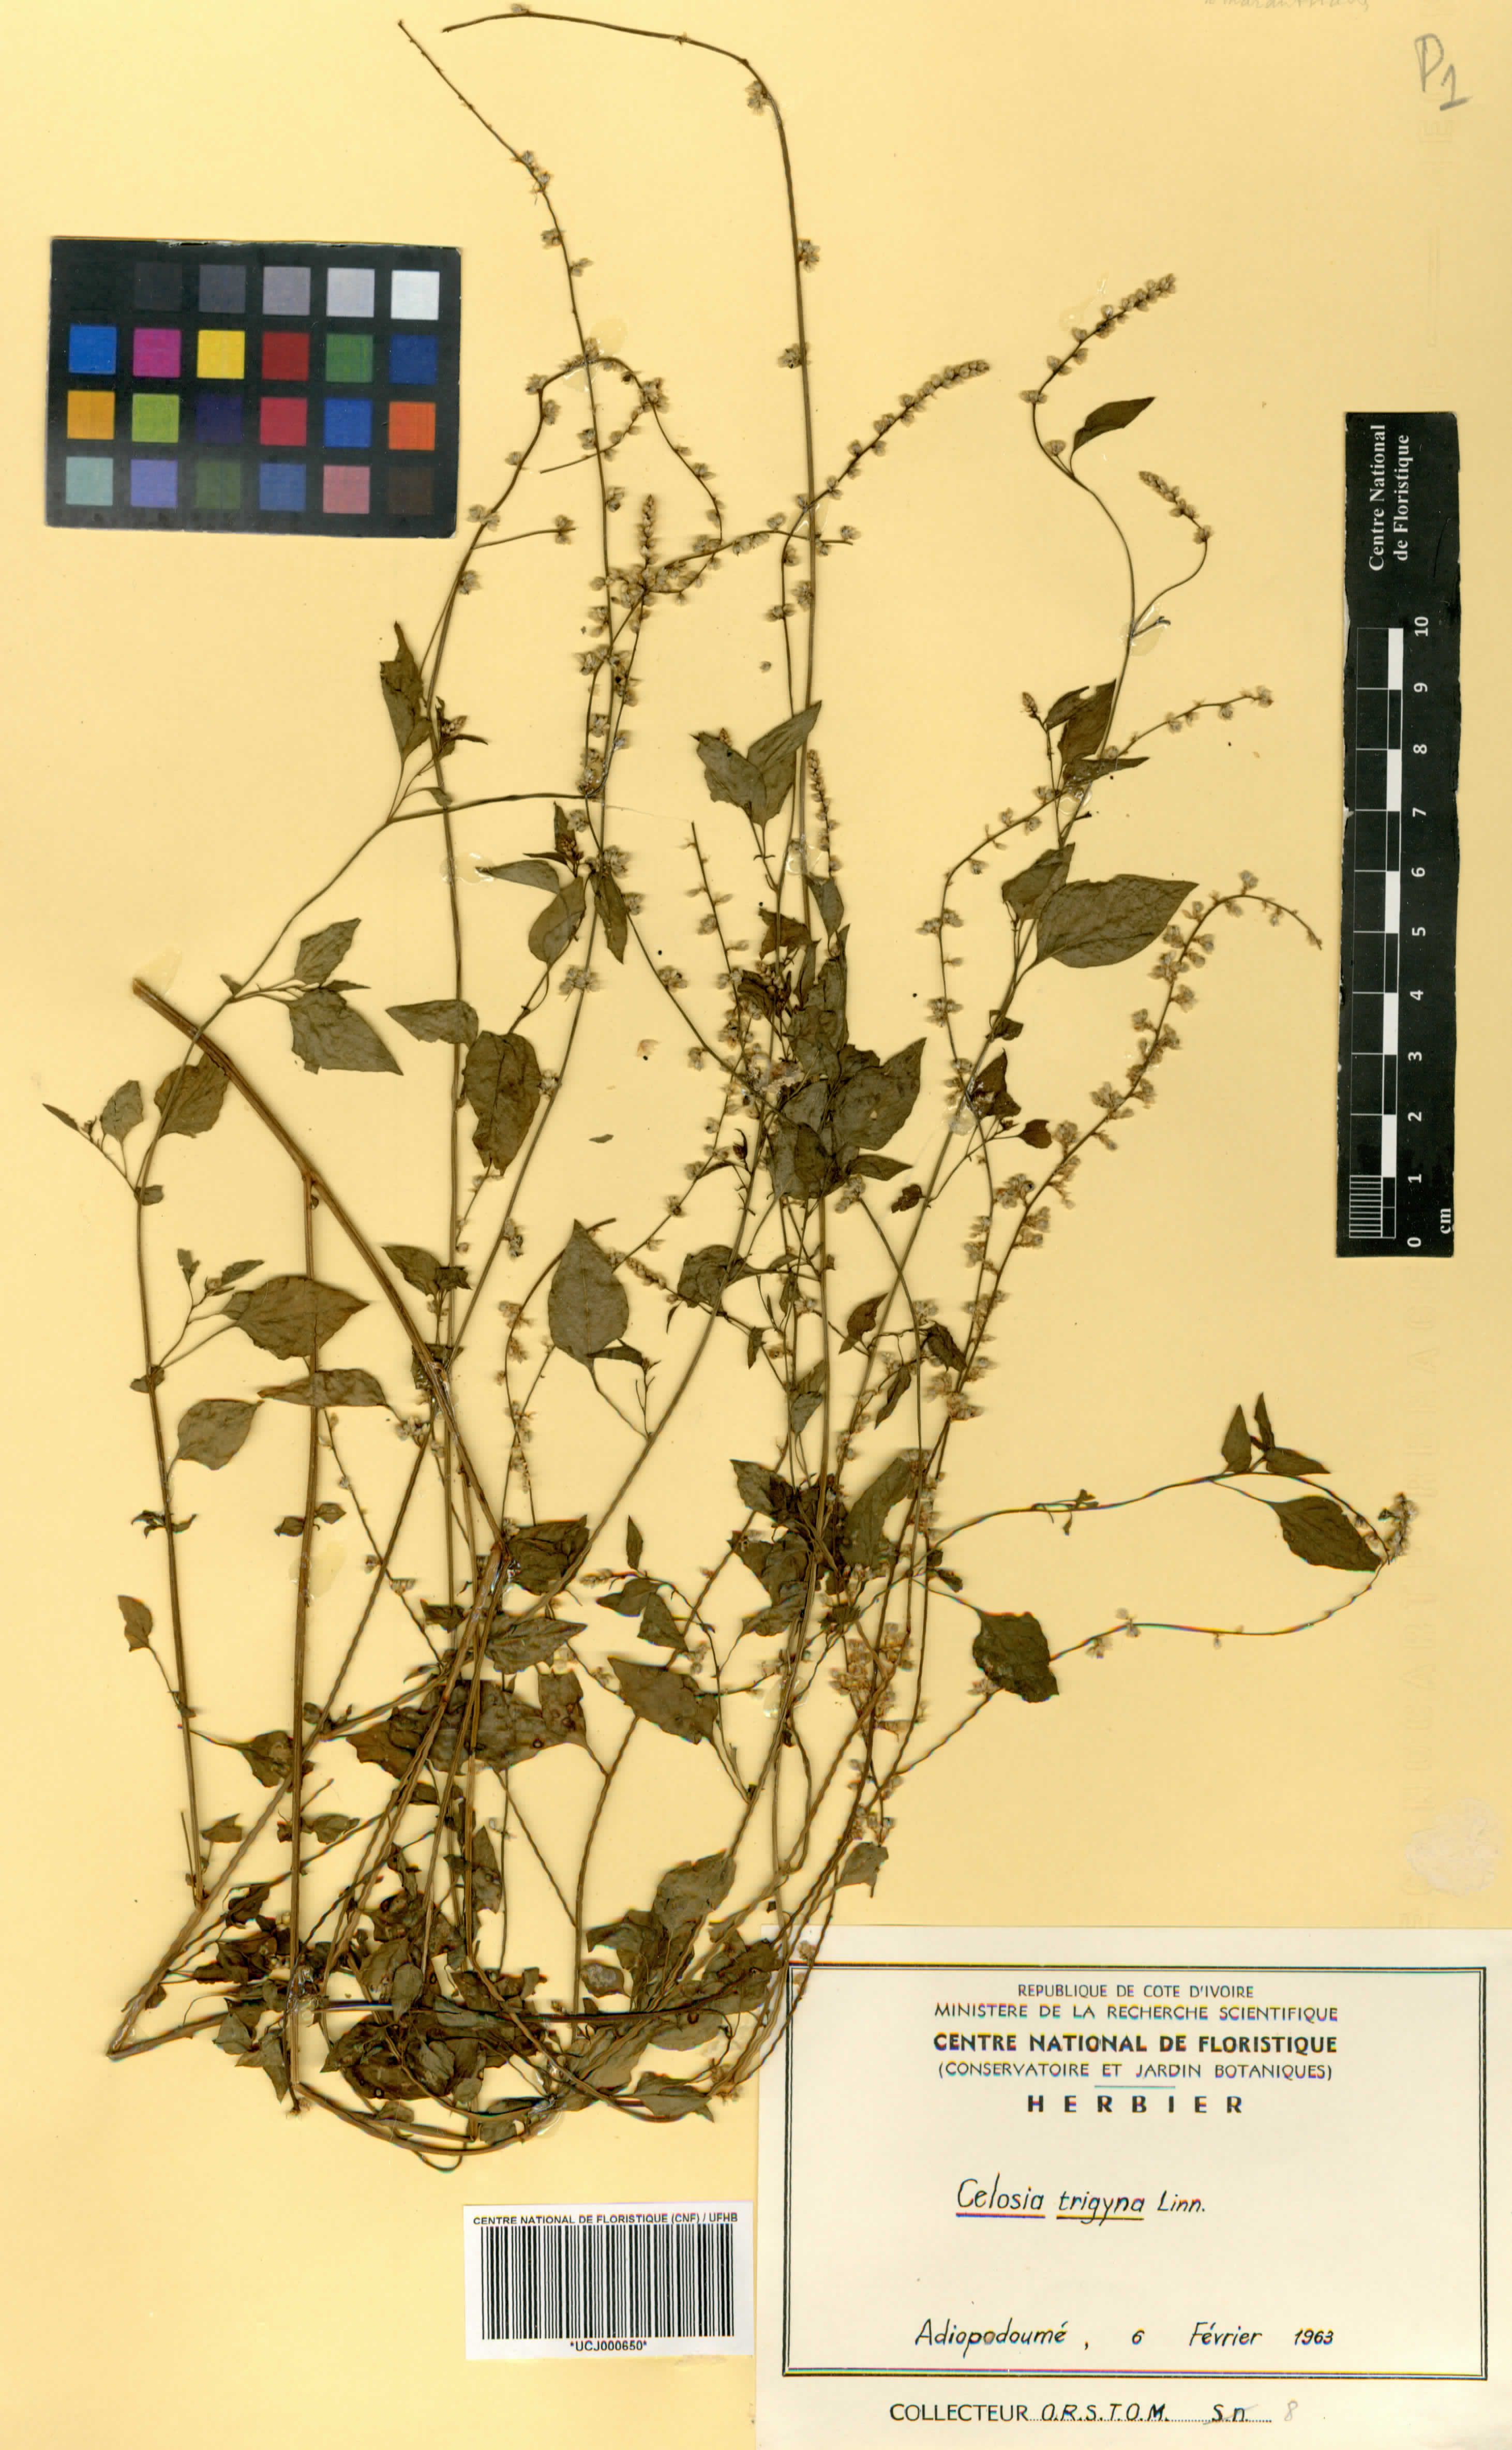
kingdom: Plantae
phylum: Tracheophyta
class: Magnoliopsida
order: Caryophyllales
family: Amaranthaceae
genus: Celosia
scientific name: Celosia trigyna
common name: Woolflower
